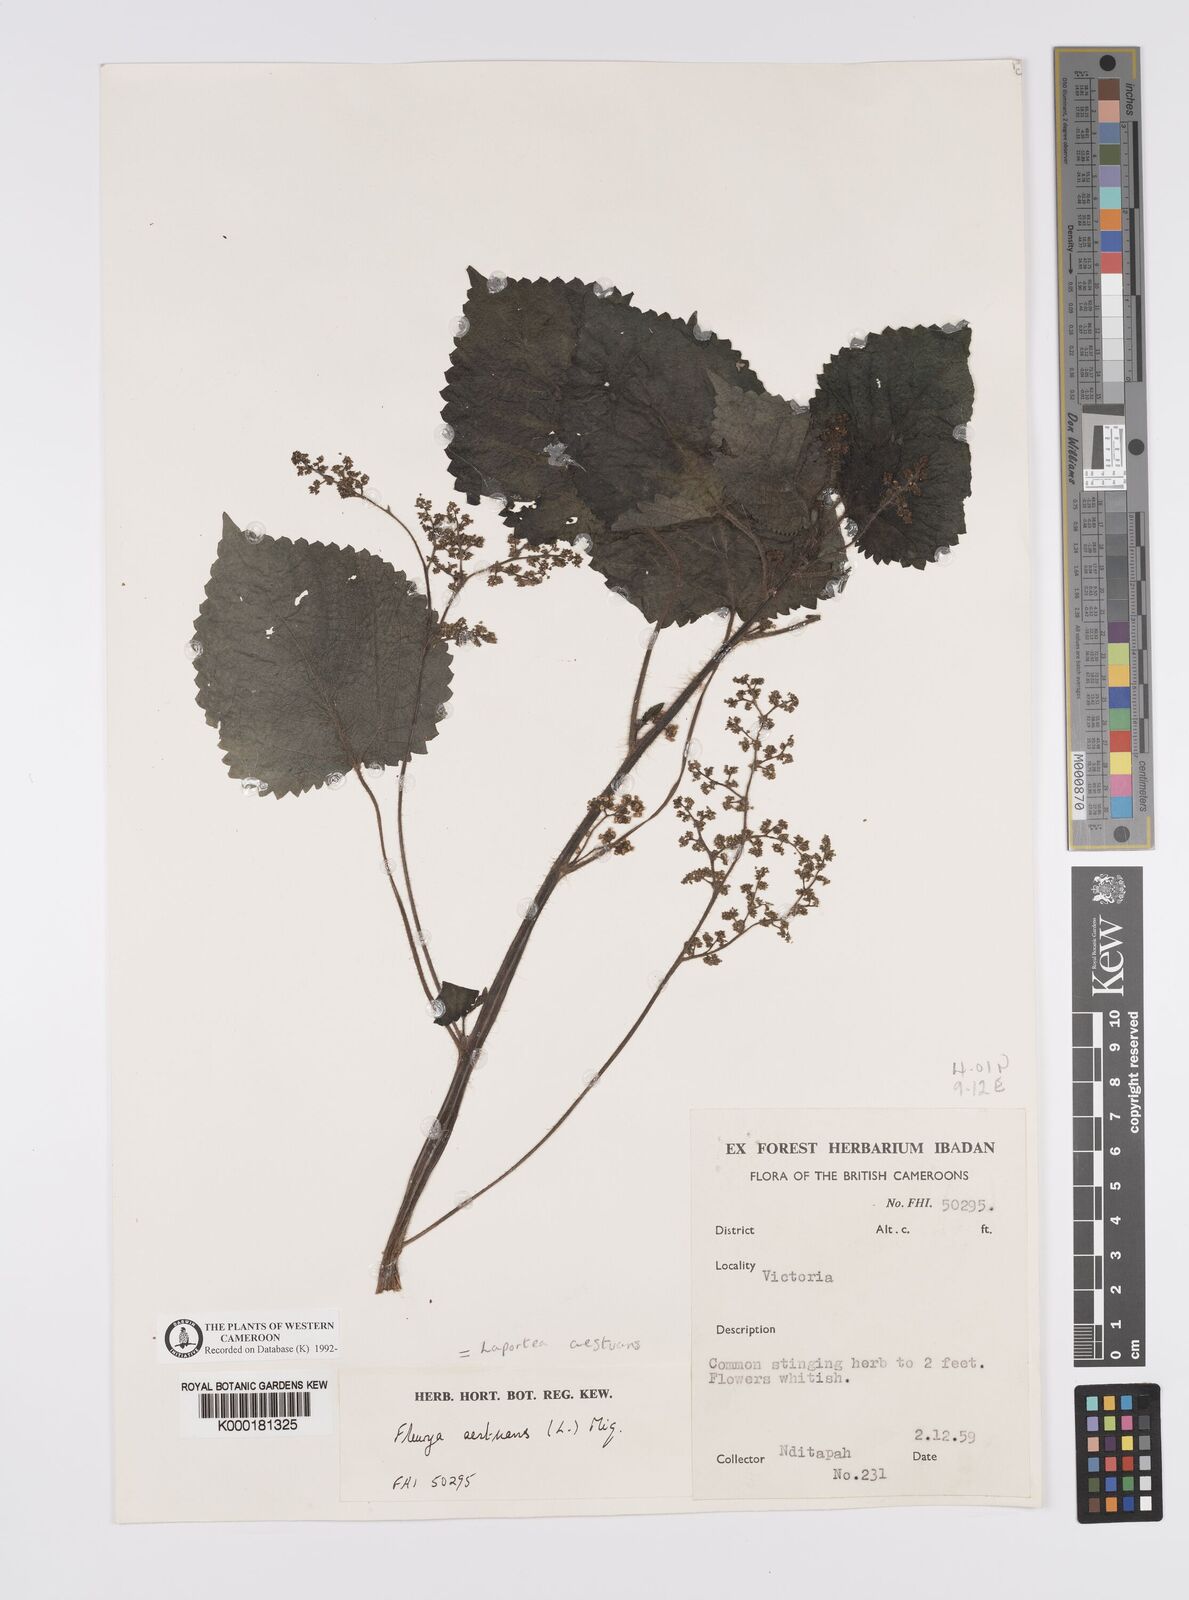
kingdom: Plantae
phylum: Tracheophyta
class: Magnoliopsida
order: Rosales
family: Urticaceae
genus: Laportea
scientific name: Laportea aestuans
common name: West indian woodnettle
